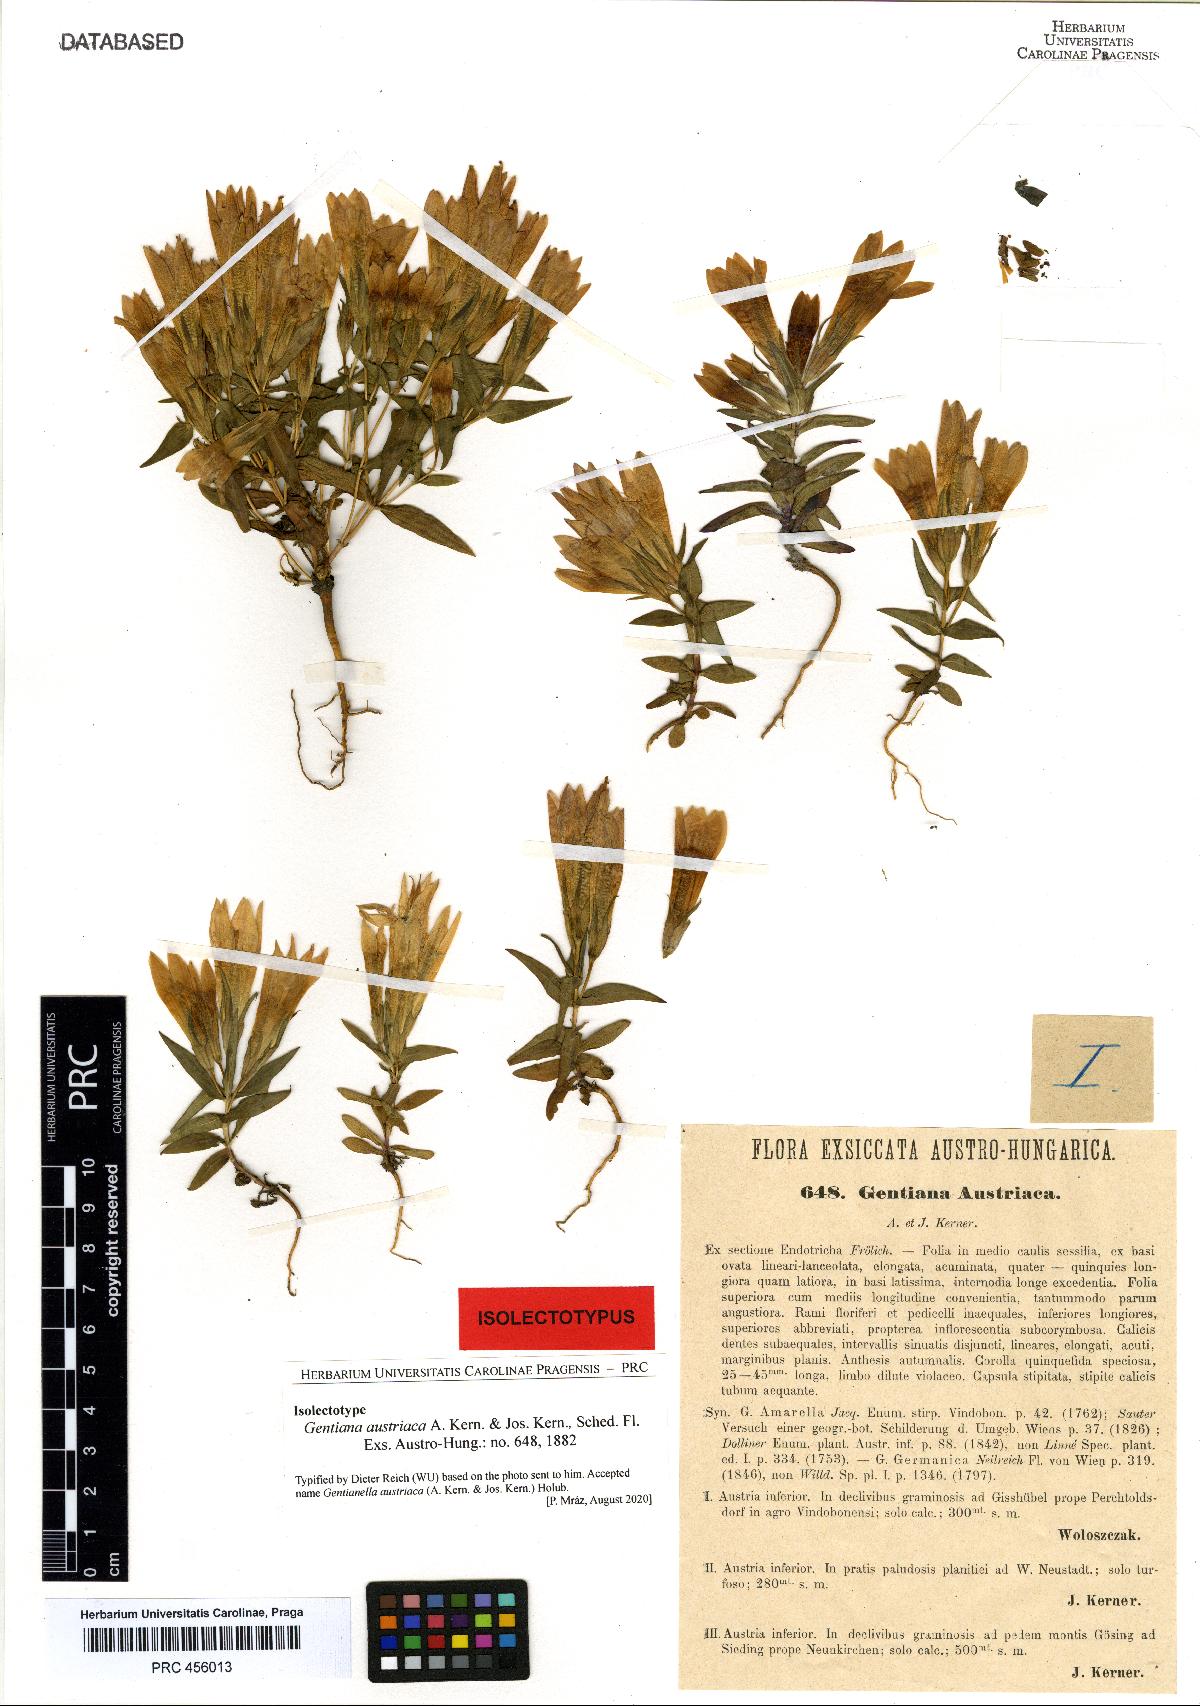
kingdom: Plantae
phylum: Tracheophyta
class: Magnoliopsida
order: Gentianales
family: Gentianaceae
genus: Gentianella
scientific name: Gentianella austriaca
